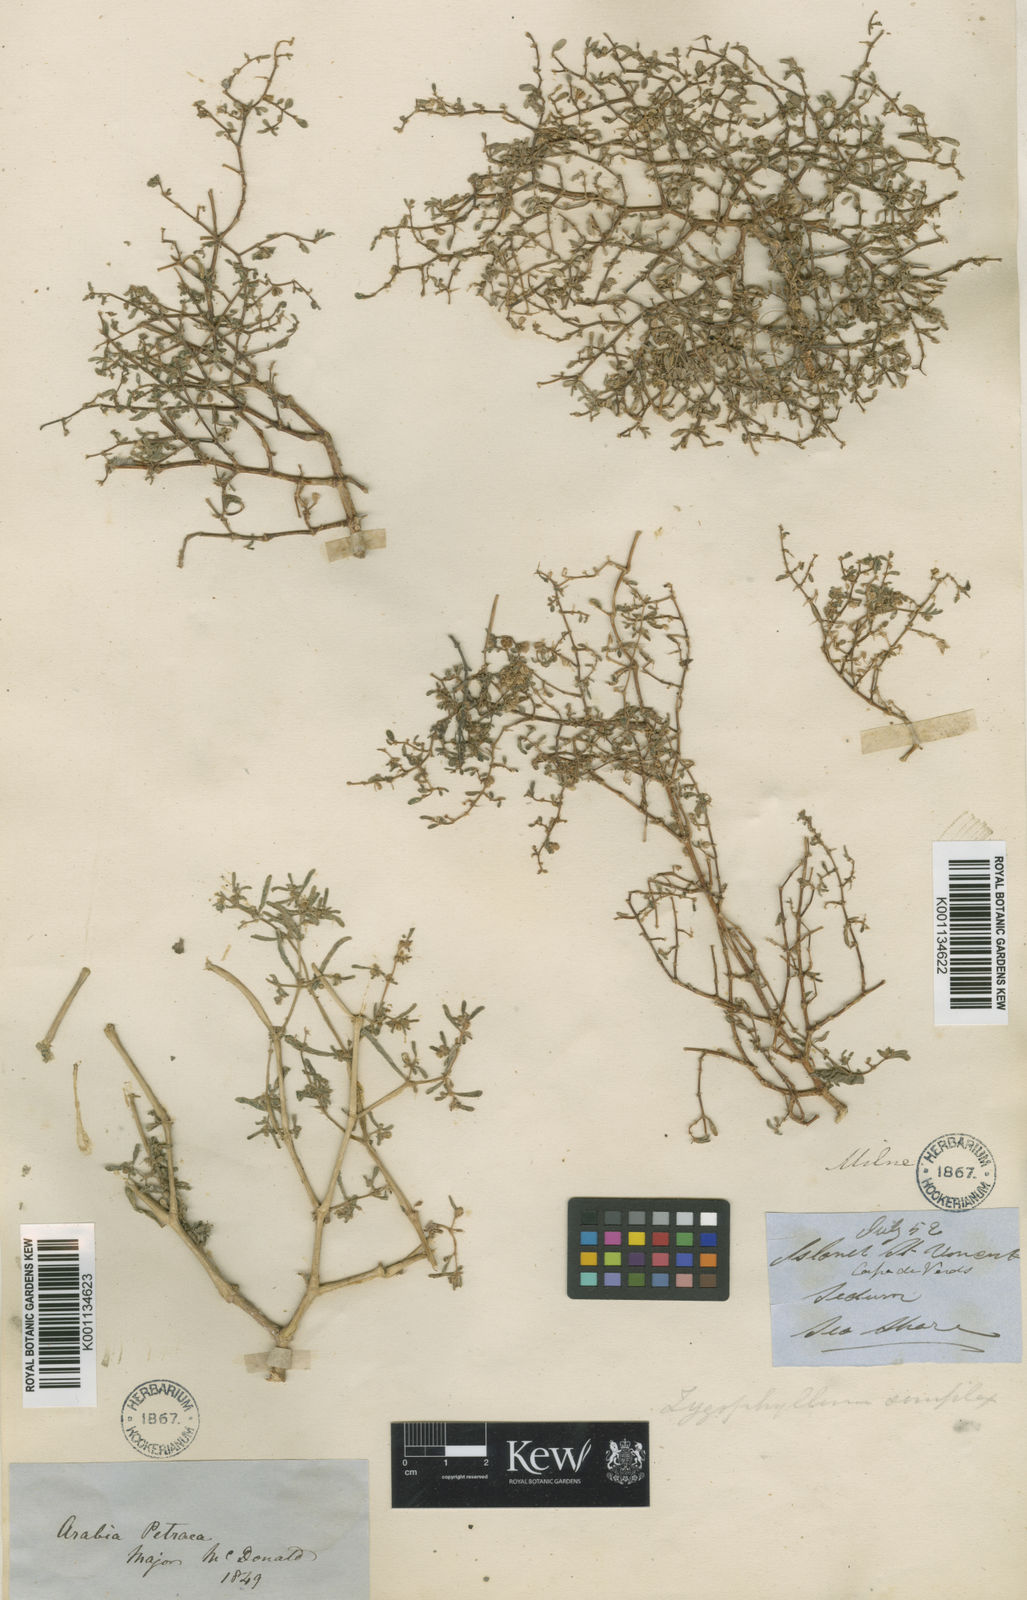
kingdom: Plantae
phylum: Tracheophyta
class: Magnoliopsida
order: Zygophyllales
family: Zygophyllaceae
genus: Tetraena
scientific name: Tetraena simplex
